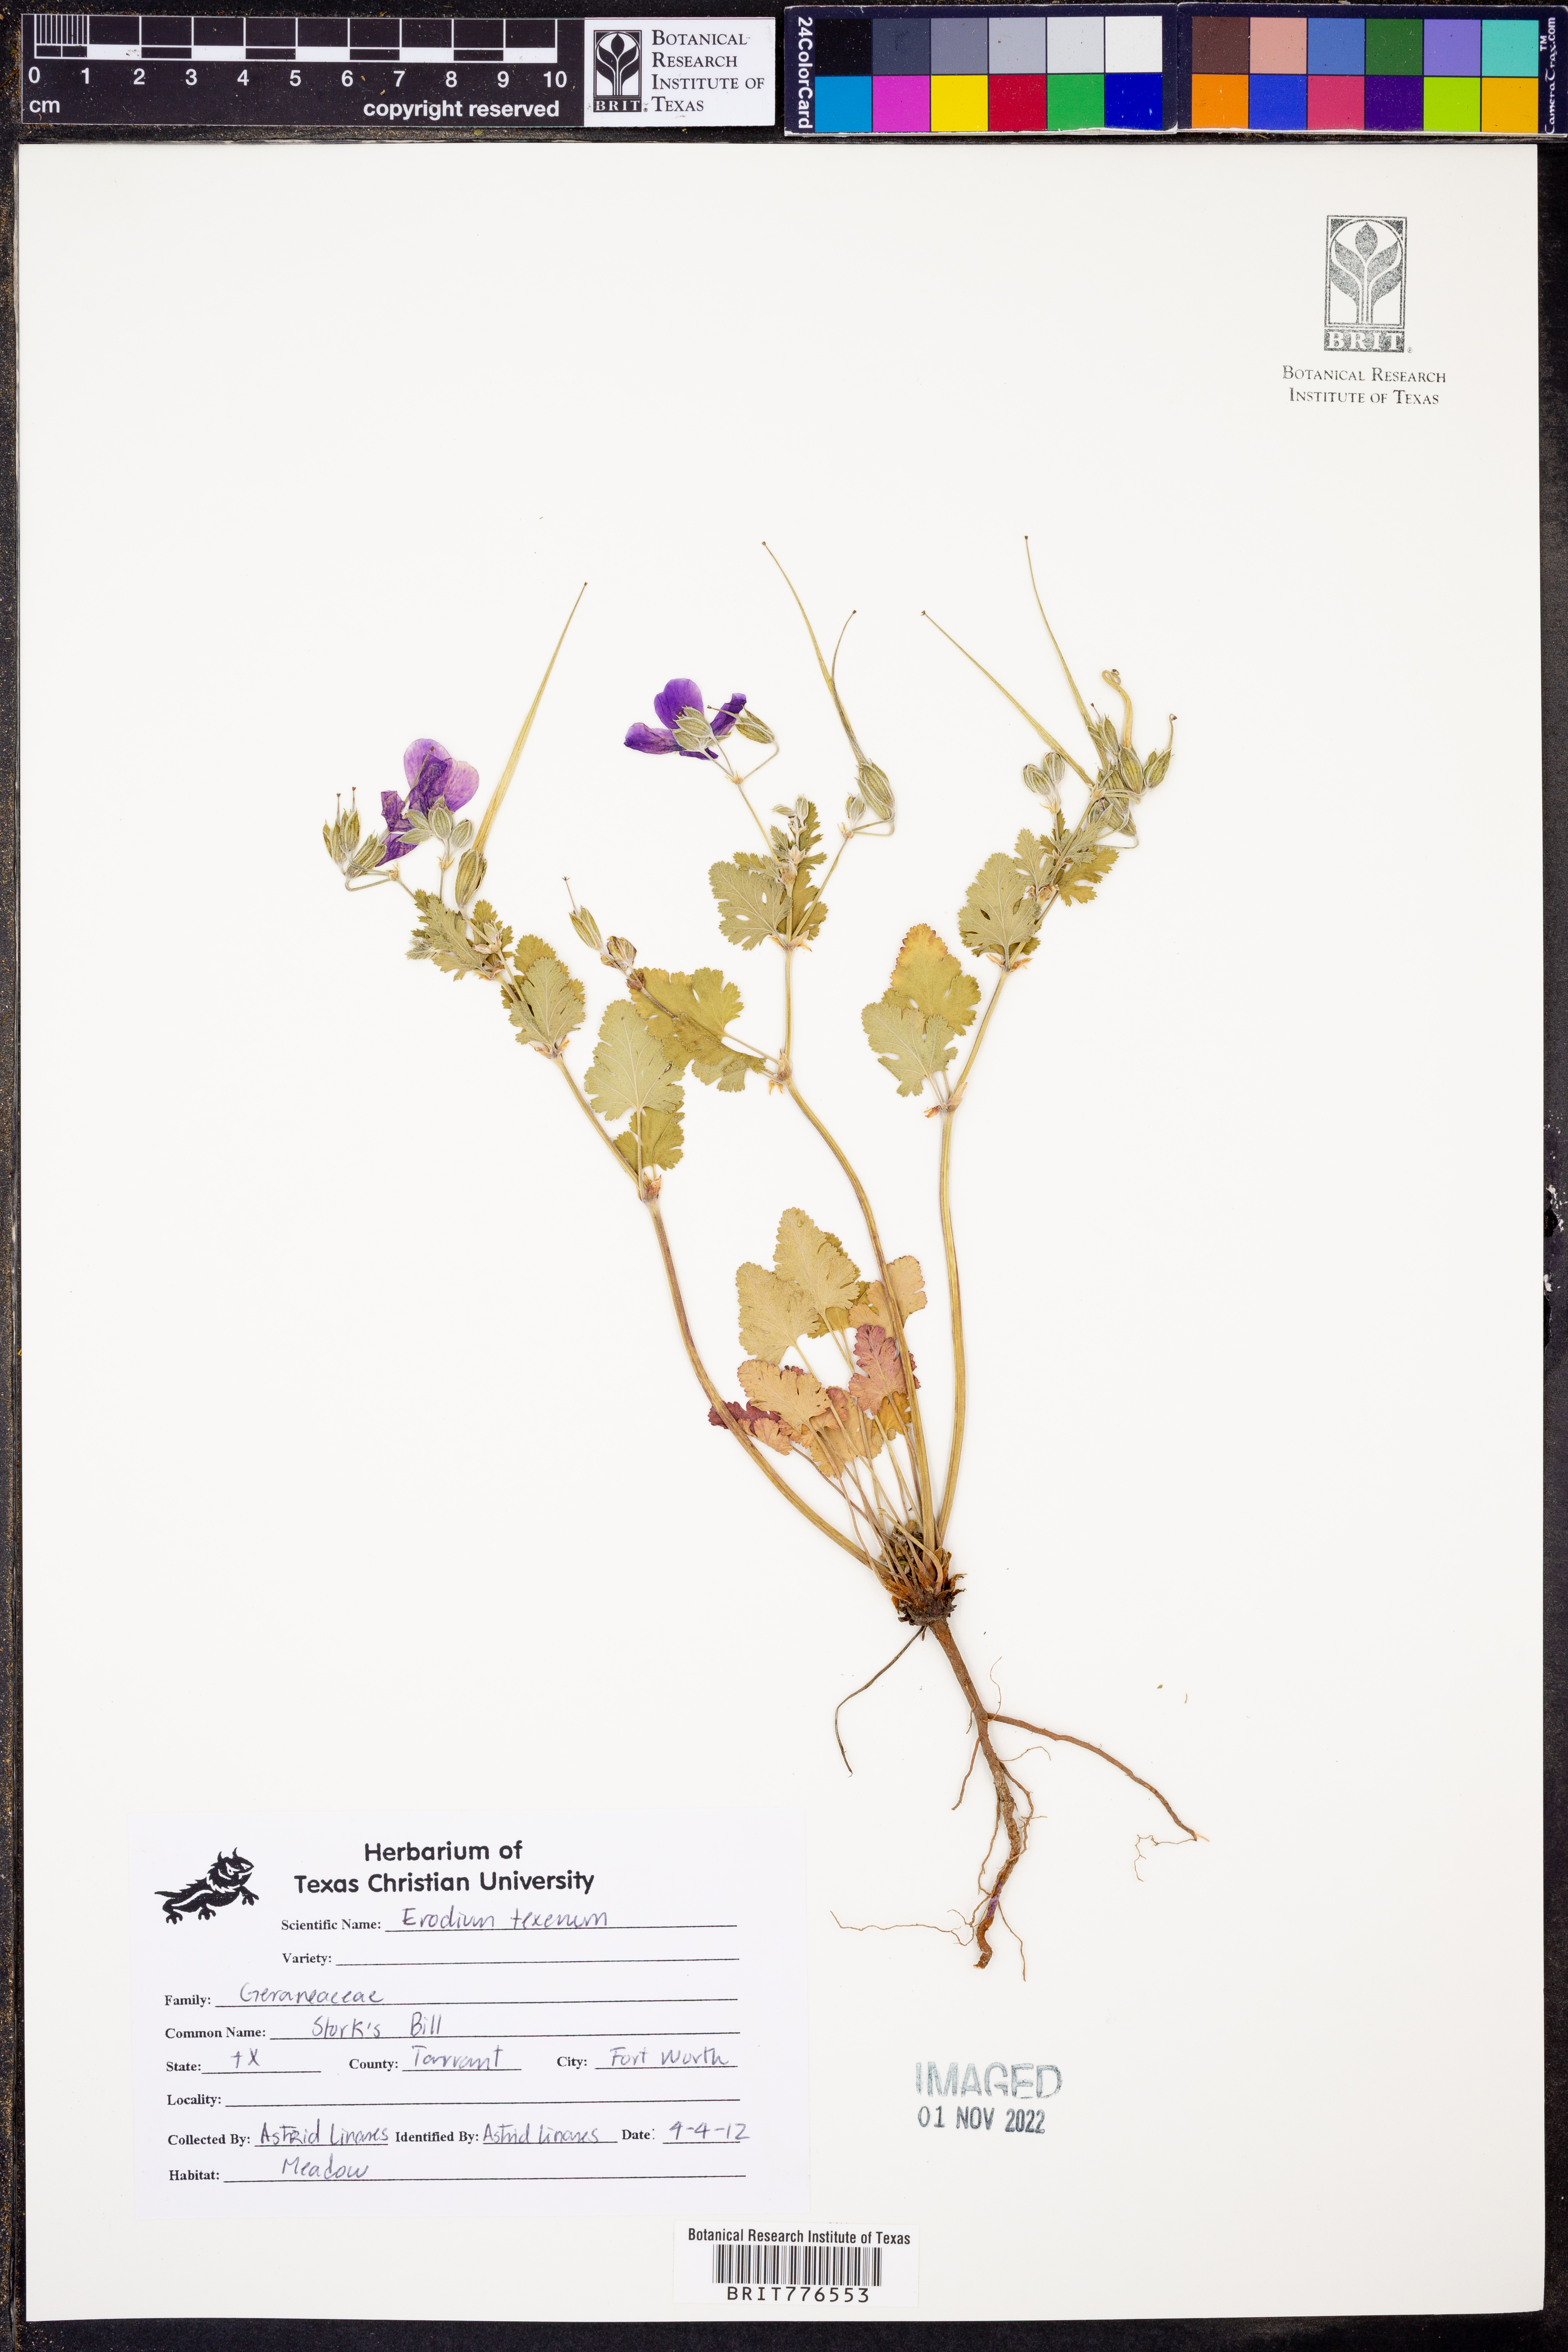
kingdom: Plantae
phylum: Tracheophyta
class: Magnoliopsida
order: Geraniales
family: Geraniaceae
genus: Erodium
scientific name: Erodium texanum
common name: Texas stork's-bill
